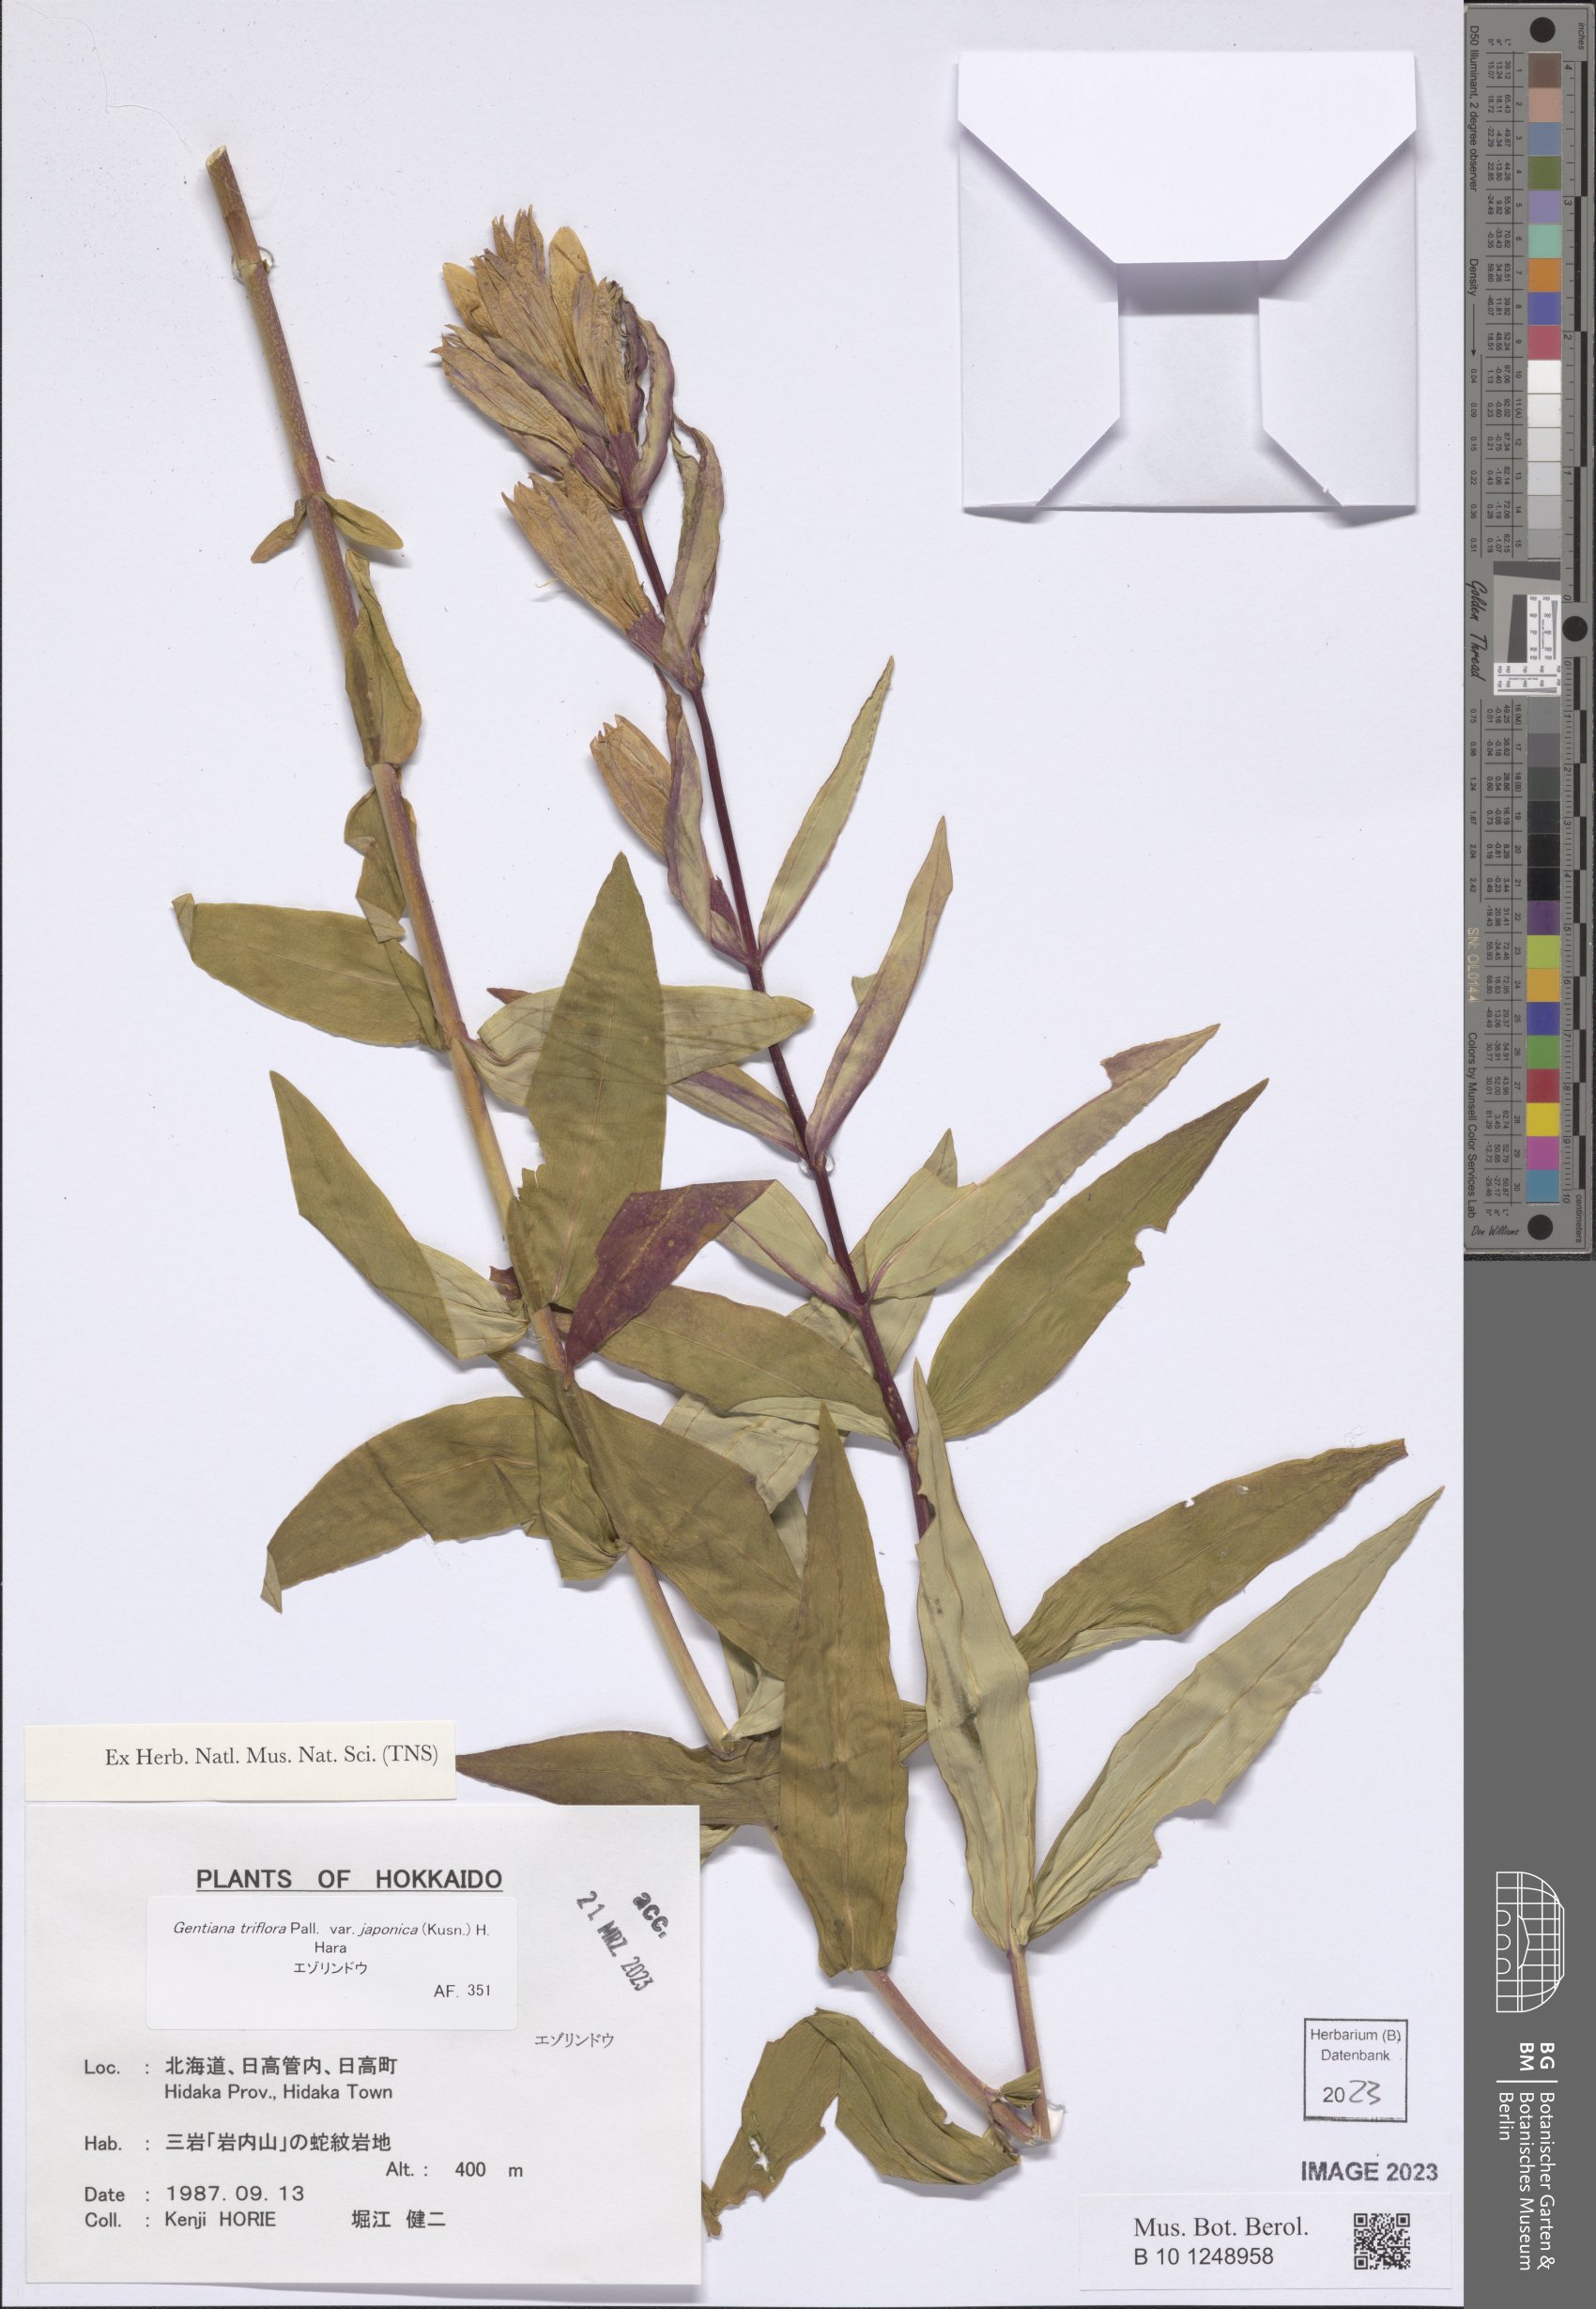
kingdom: Plantae
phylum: Tracheophyta
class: Magnoliopsida
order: Gentianales
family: Gentianaceae
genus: Gentiana
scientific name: Gentiana triflora
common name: Three-flower gentian
